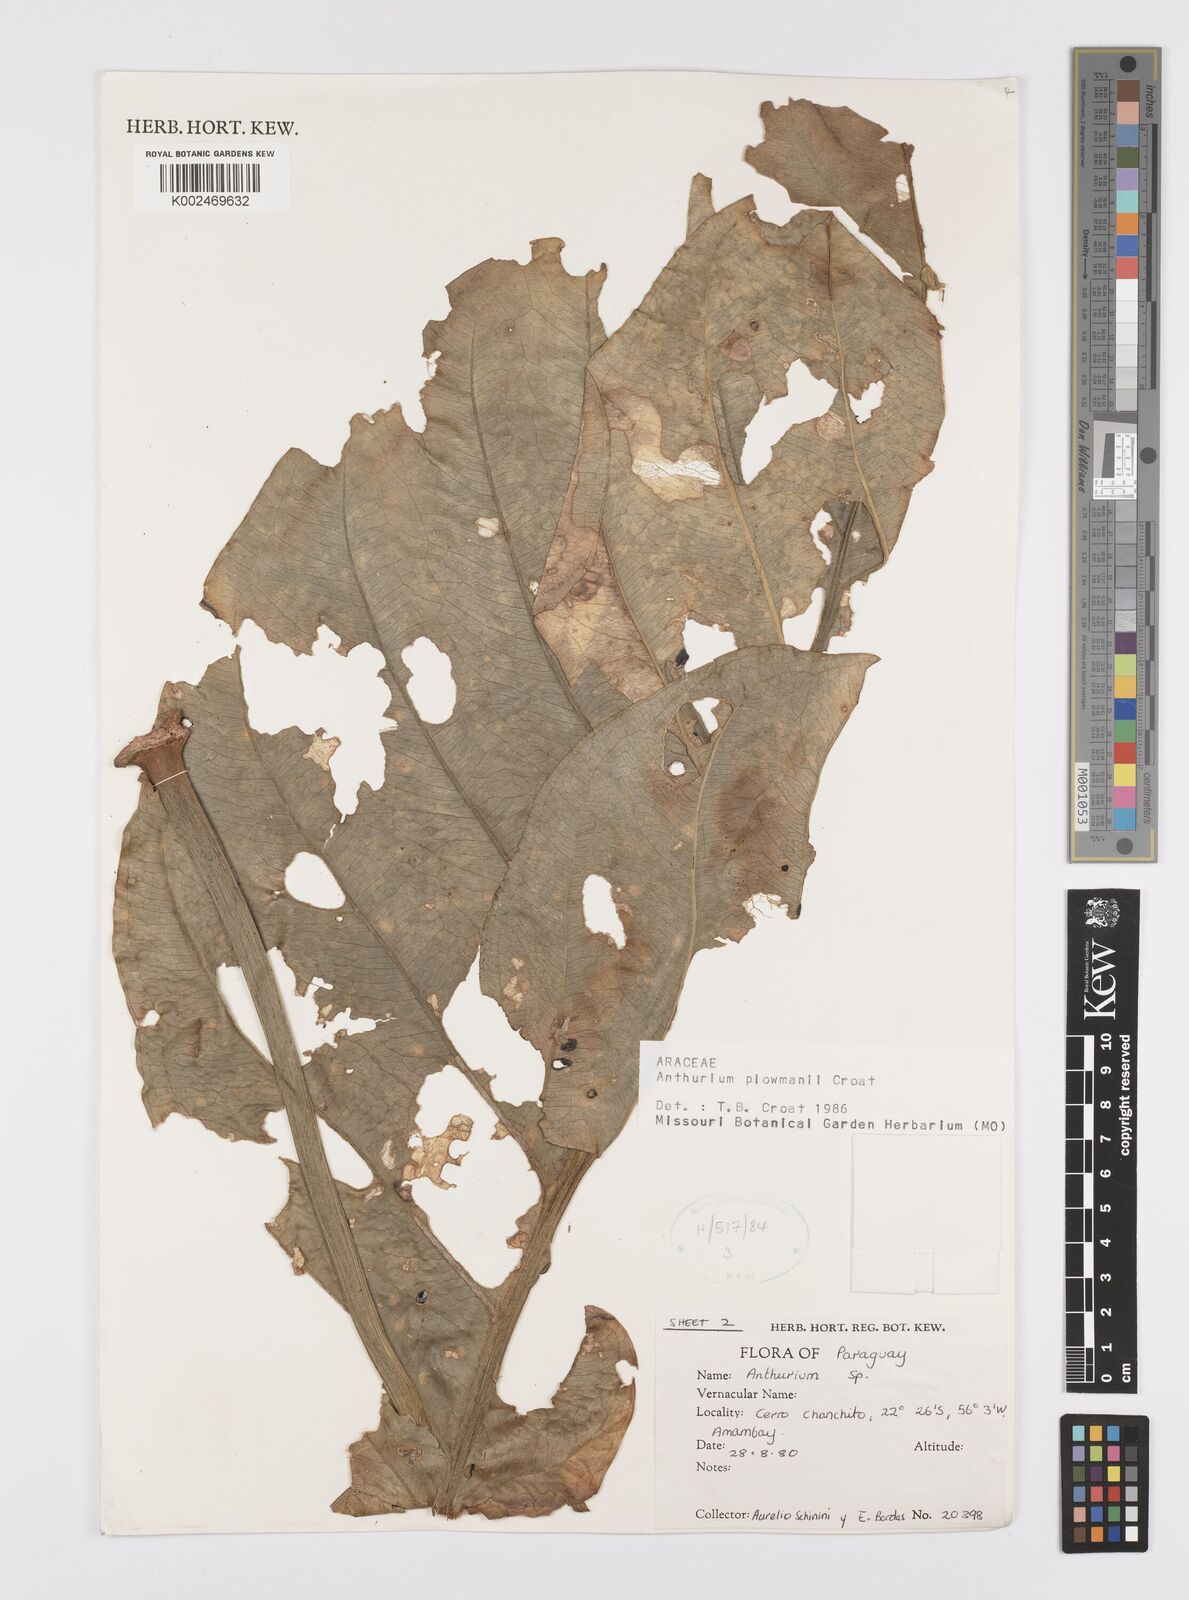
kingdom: Plantae
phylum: Tracheophyta
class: Liliopsida
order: Alismatales
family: Araceae
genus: Anthurium
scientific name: Anthurium plowmanii
